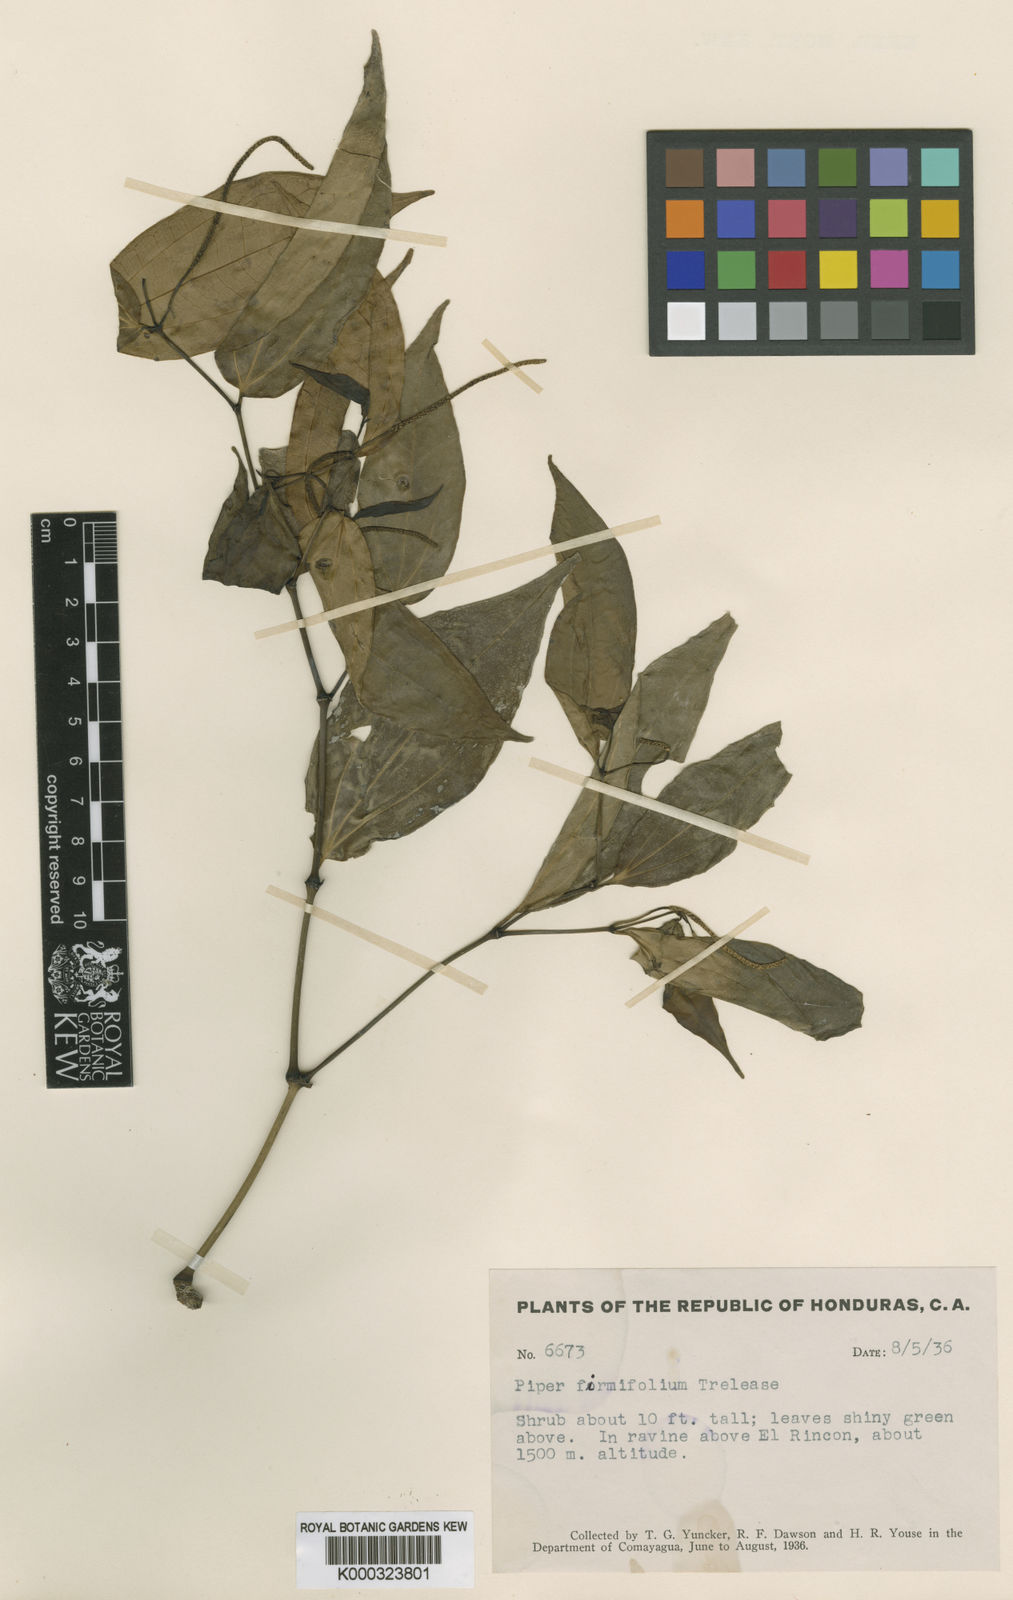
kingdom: Plantae
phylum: Tracheophyta
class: Magnoliopsida
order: Piperales
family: Piperaceae
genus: Piper
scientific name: Piper pseudolindenii
